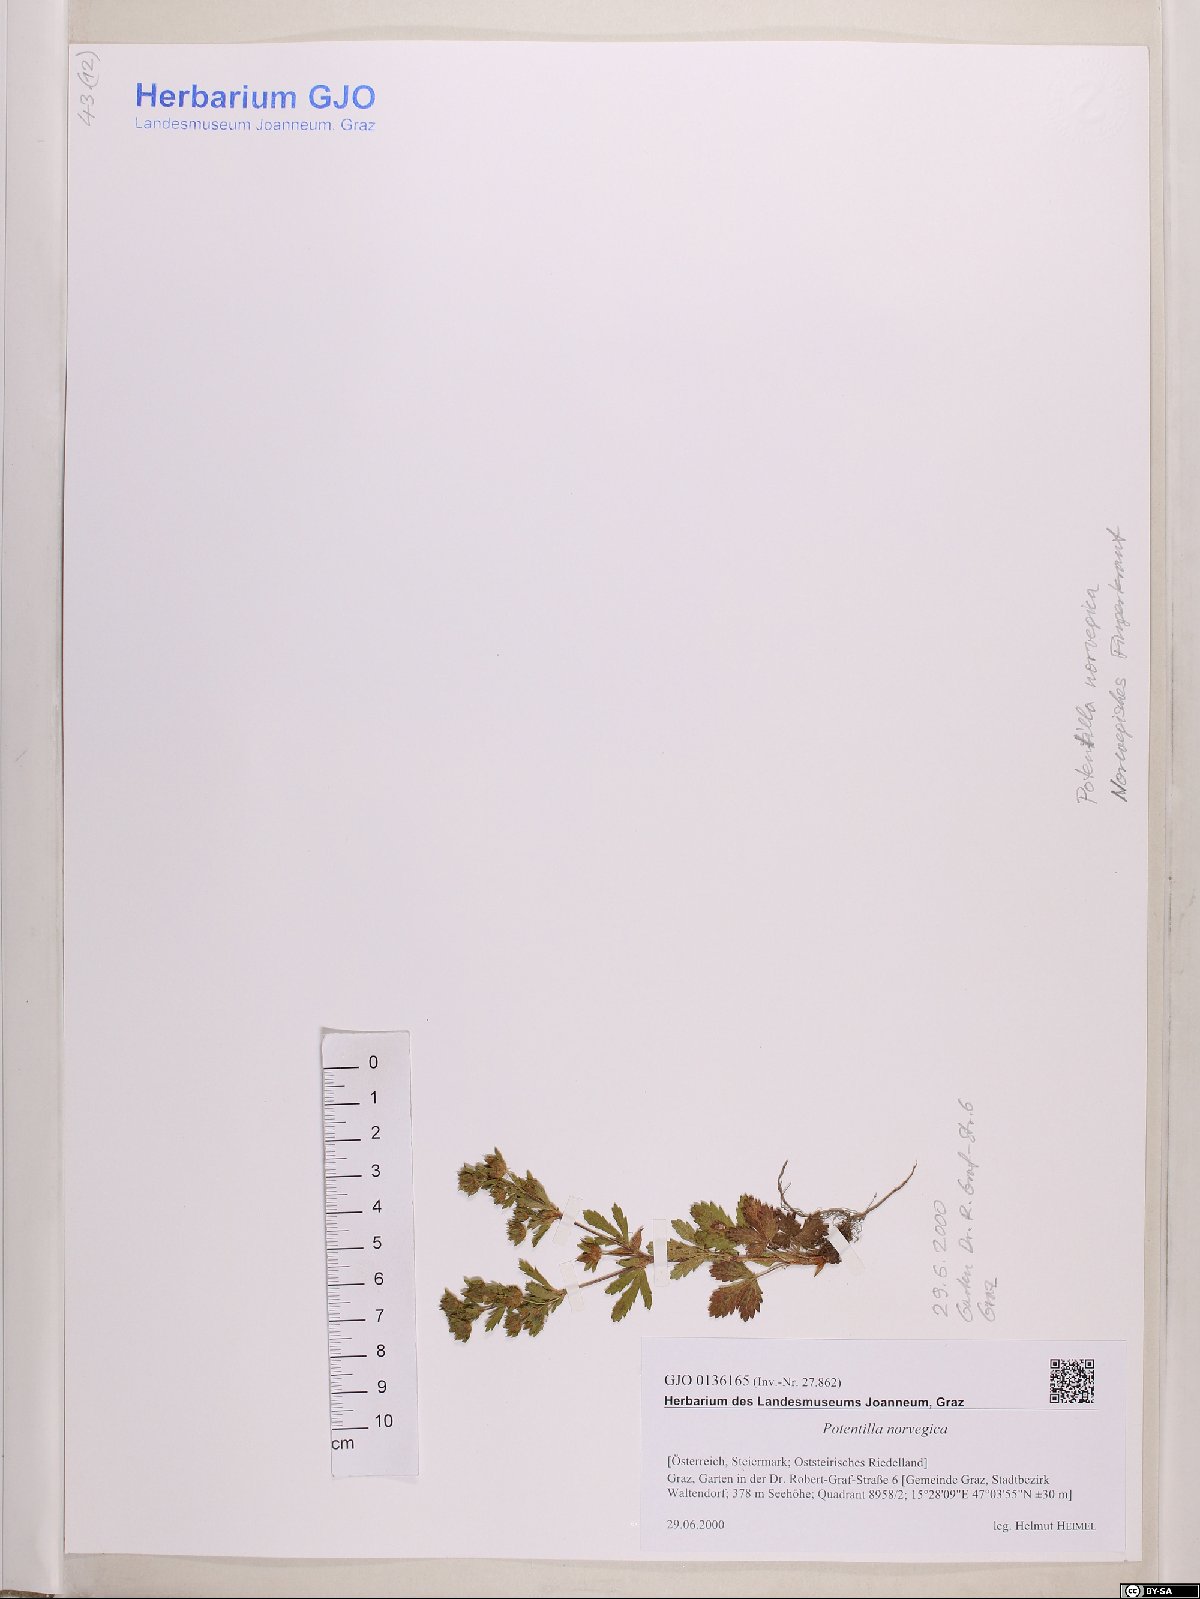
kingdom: Plantae
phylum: Tracheophyta
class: Magnoliopsida
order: Rosales
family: Rosaceae
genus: Potentilla
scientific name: Potentilla norvegica
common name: Ternate-leaved cinquefoil
